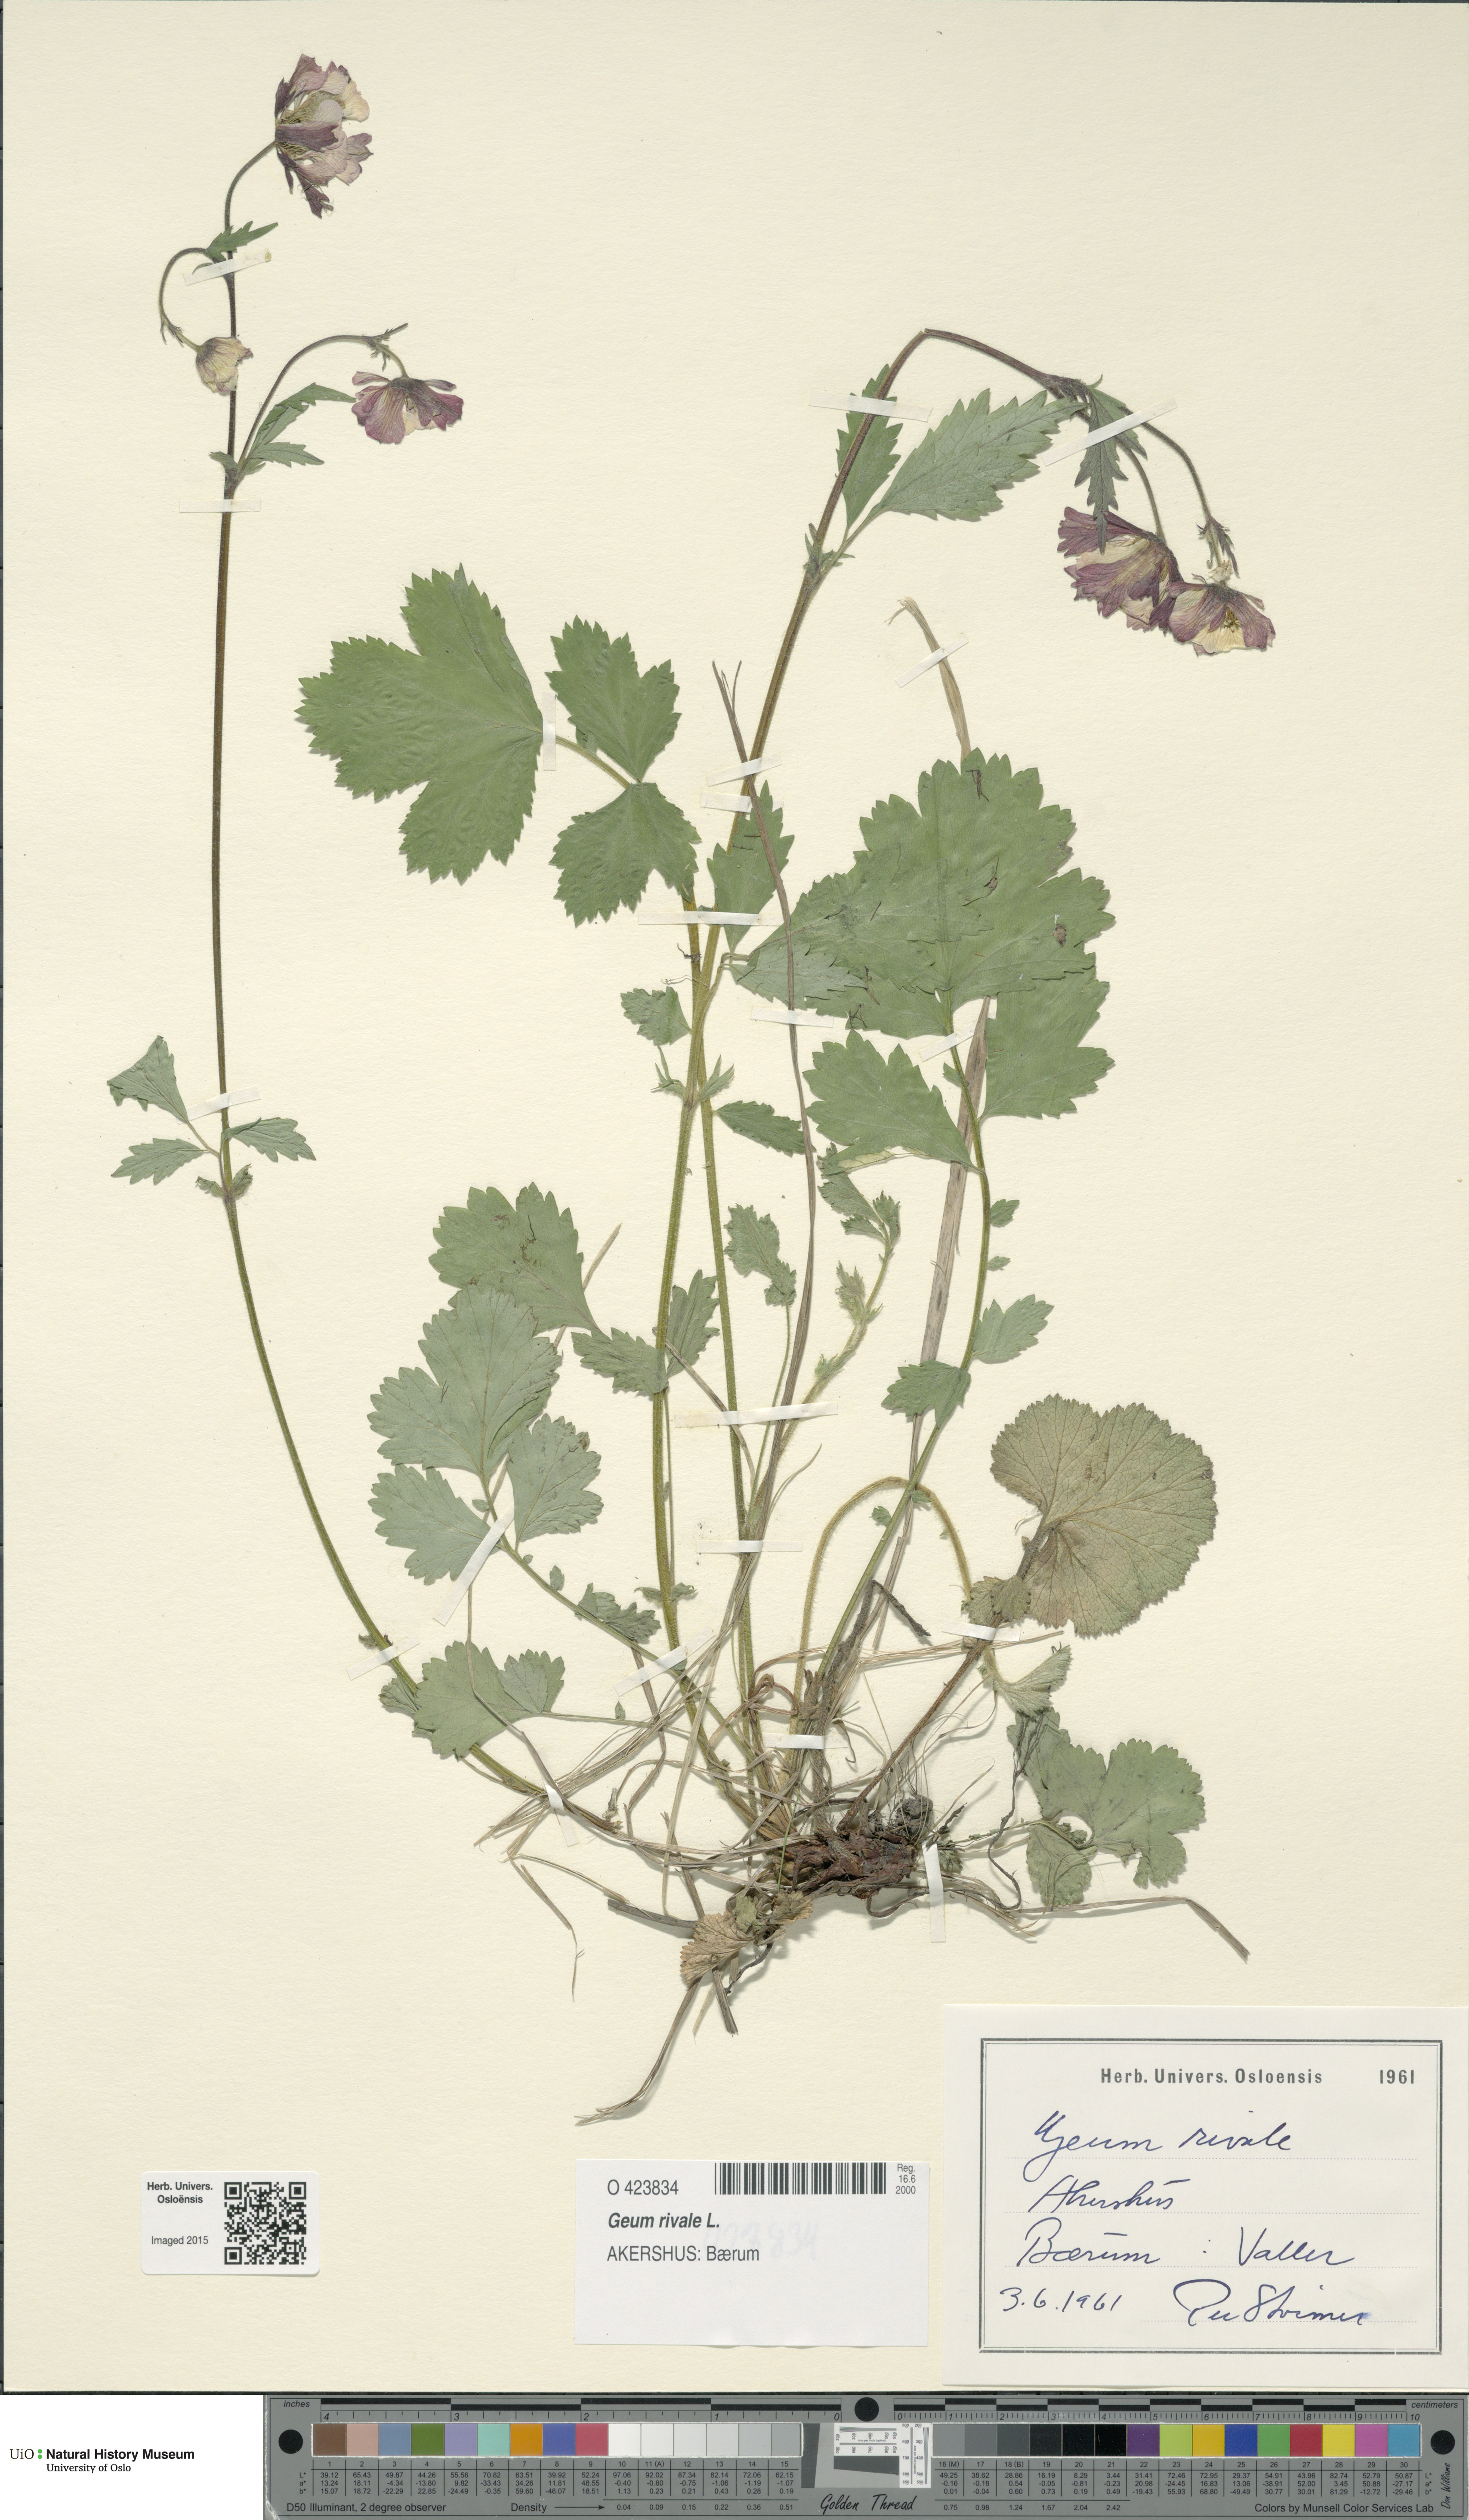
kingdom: Plantae
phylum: Tracheophyta
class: Magnoliopsida
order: Rosales
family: Rosaceae
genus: Geum
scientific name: Geum rivale
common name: Water avens
